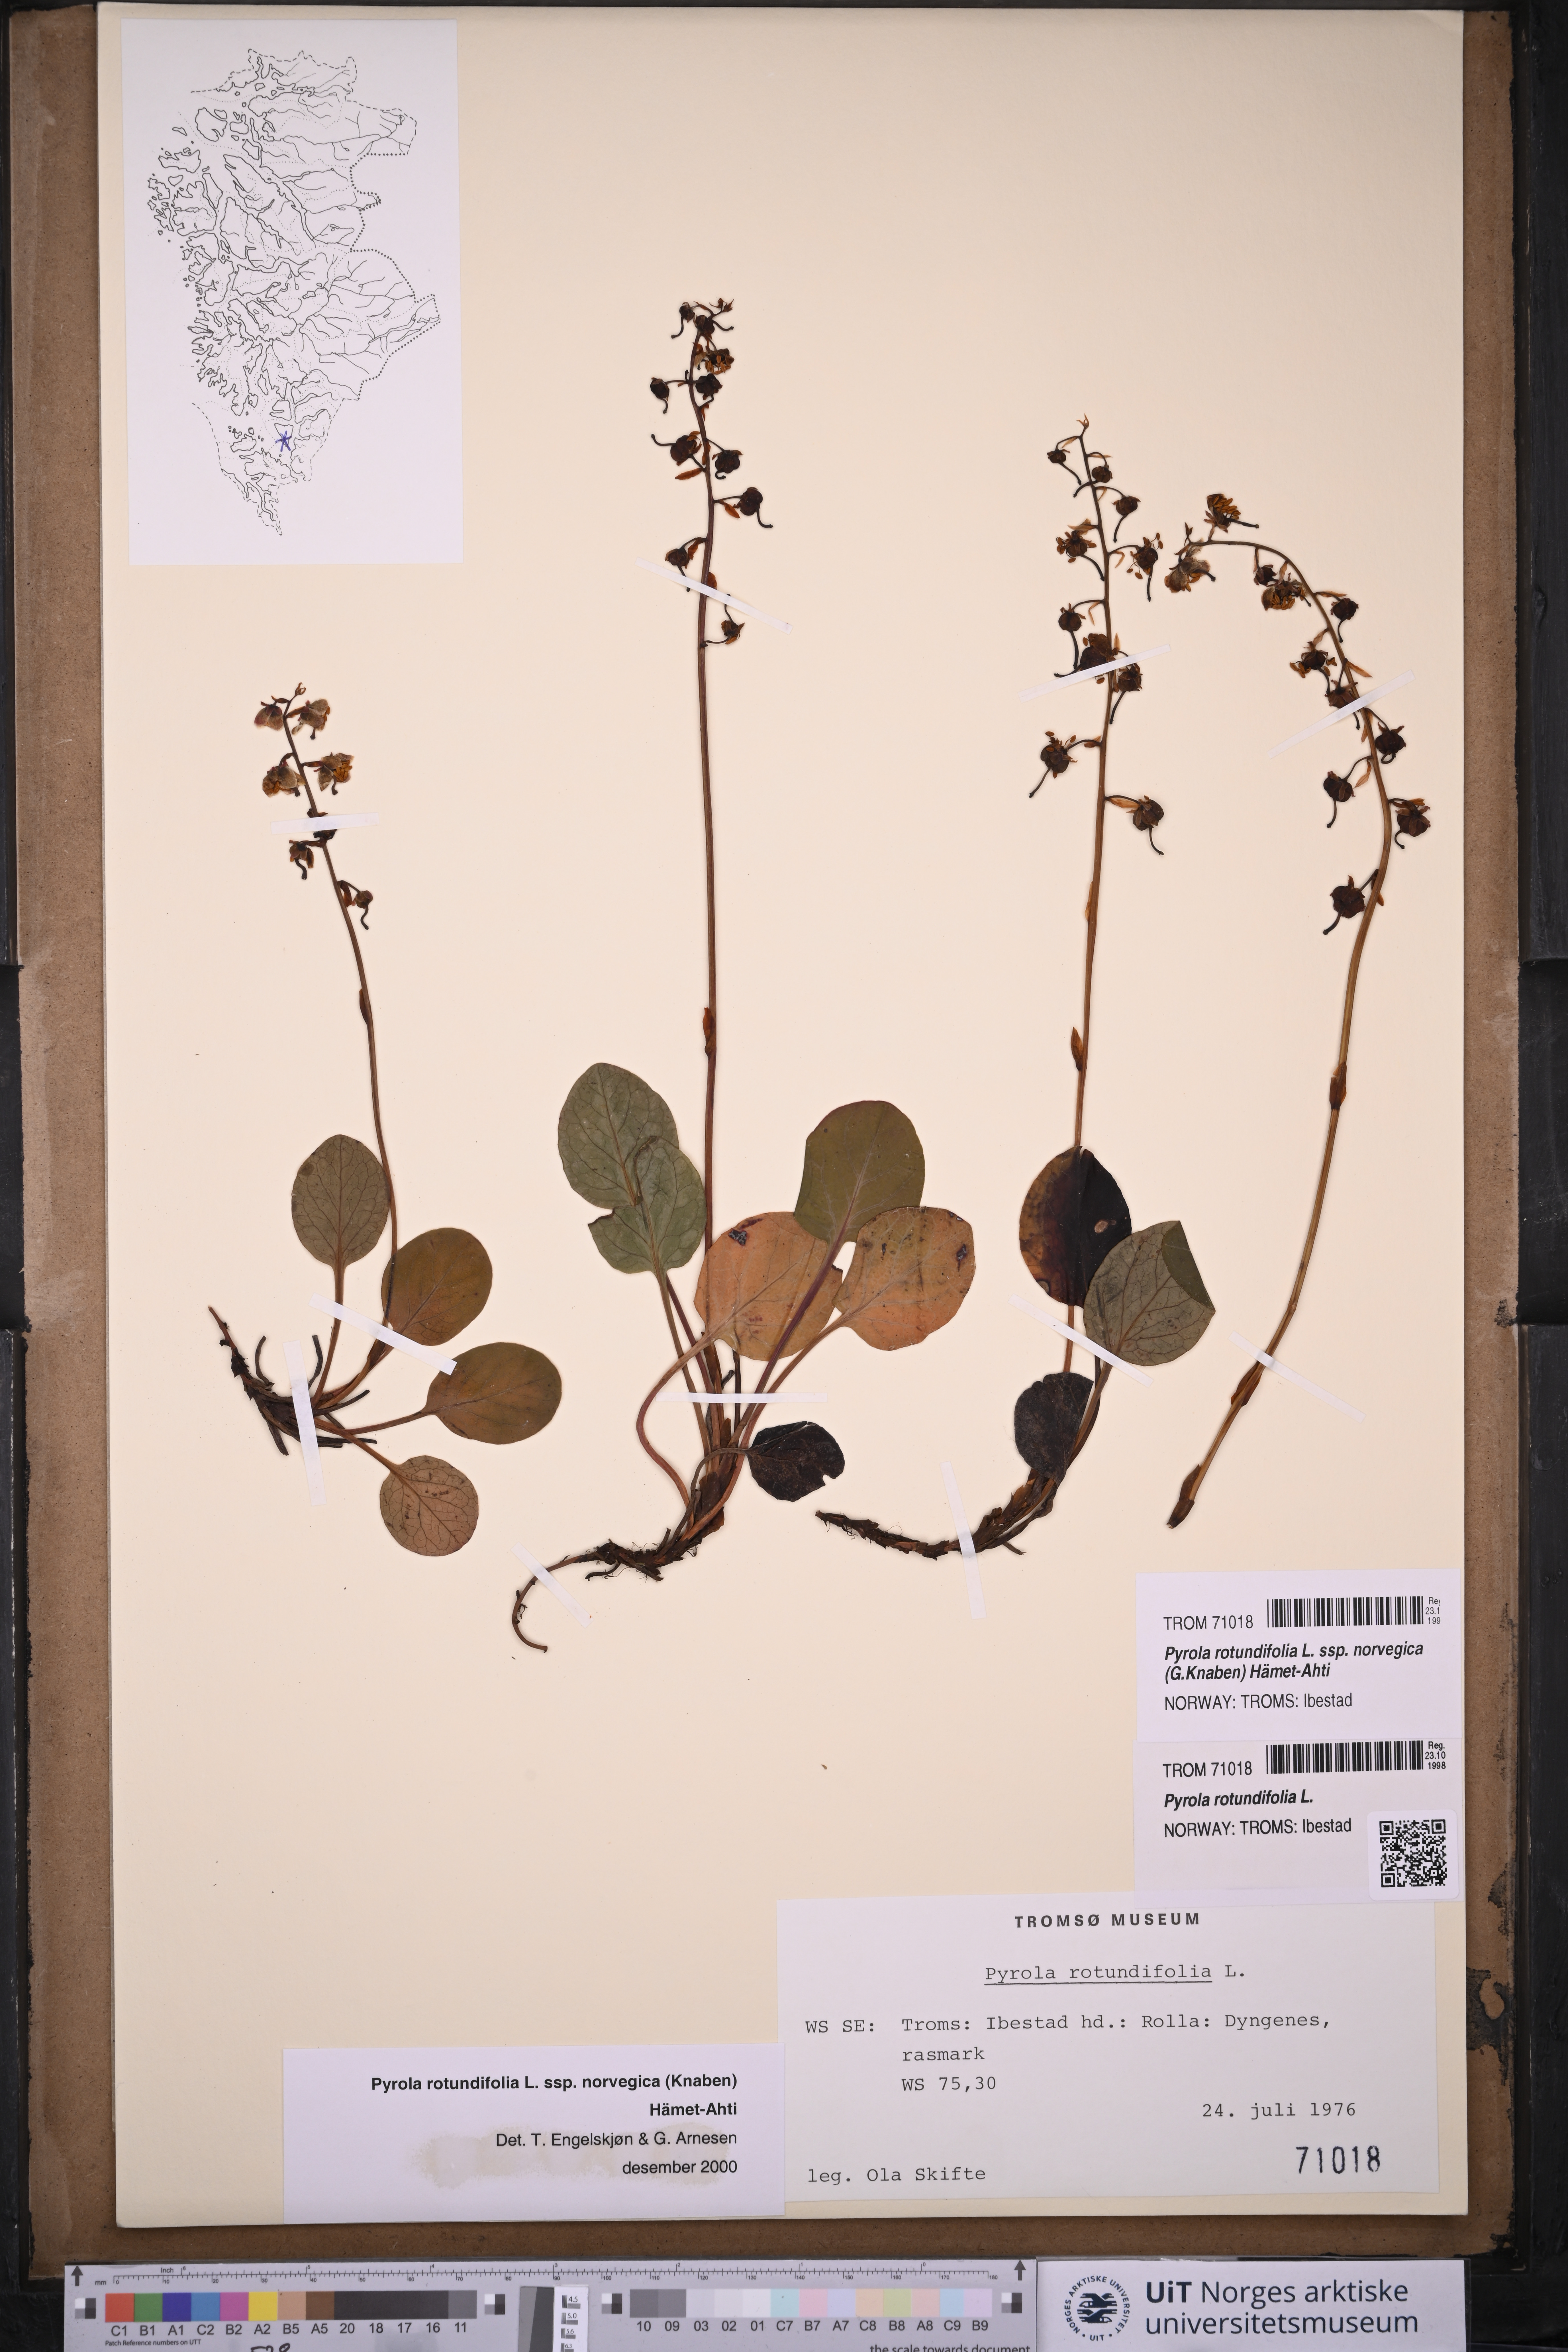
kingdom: Plantae
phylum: Tracheophyta
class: Magnoliopsida
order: Ericales
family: Ericaceae
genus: Pyrola
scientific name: Pyrola rotundifolia
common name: Round-leaved wintergreen
